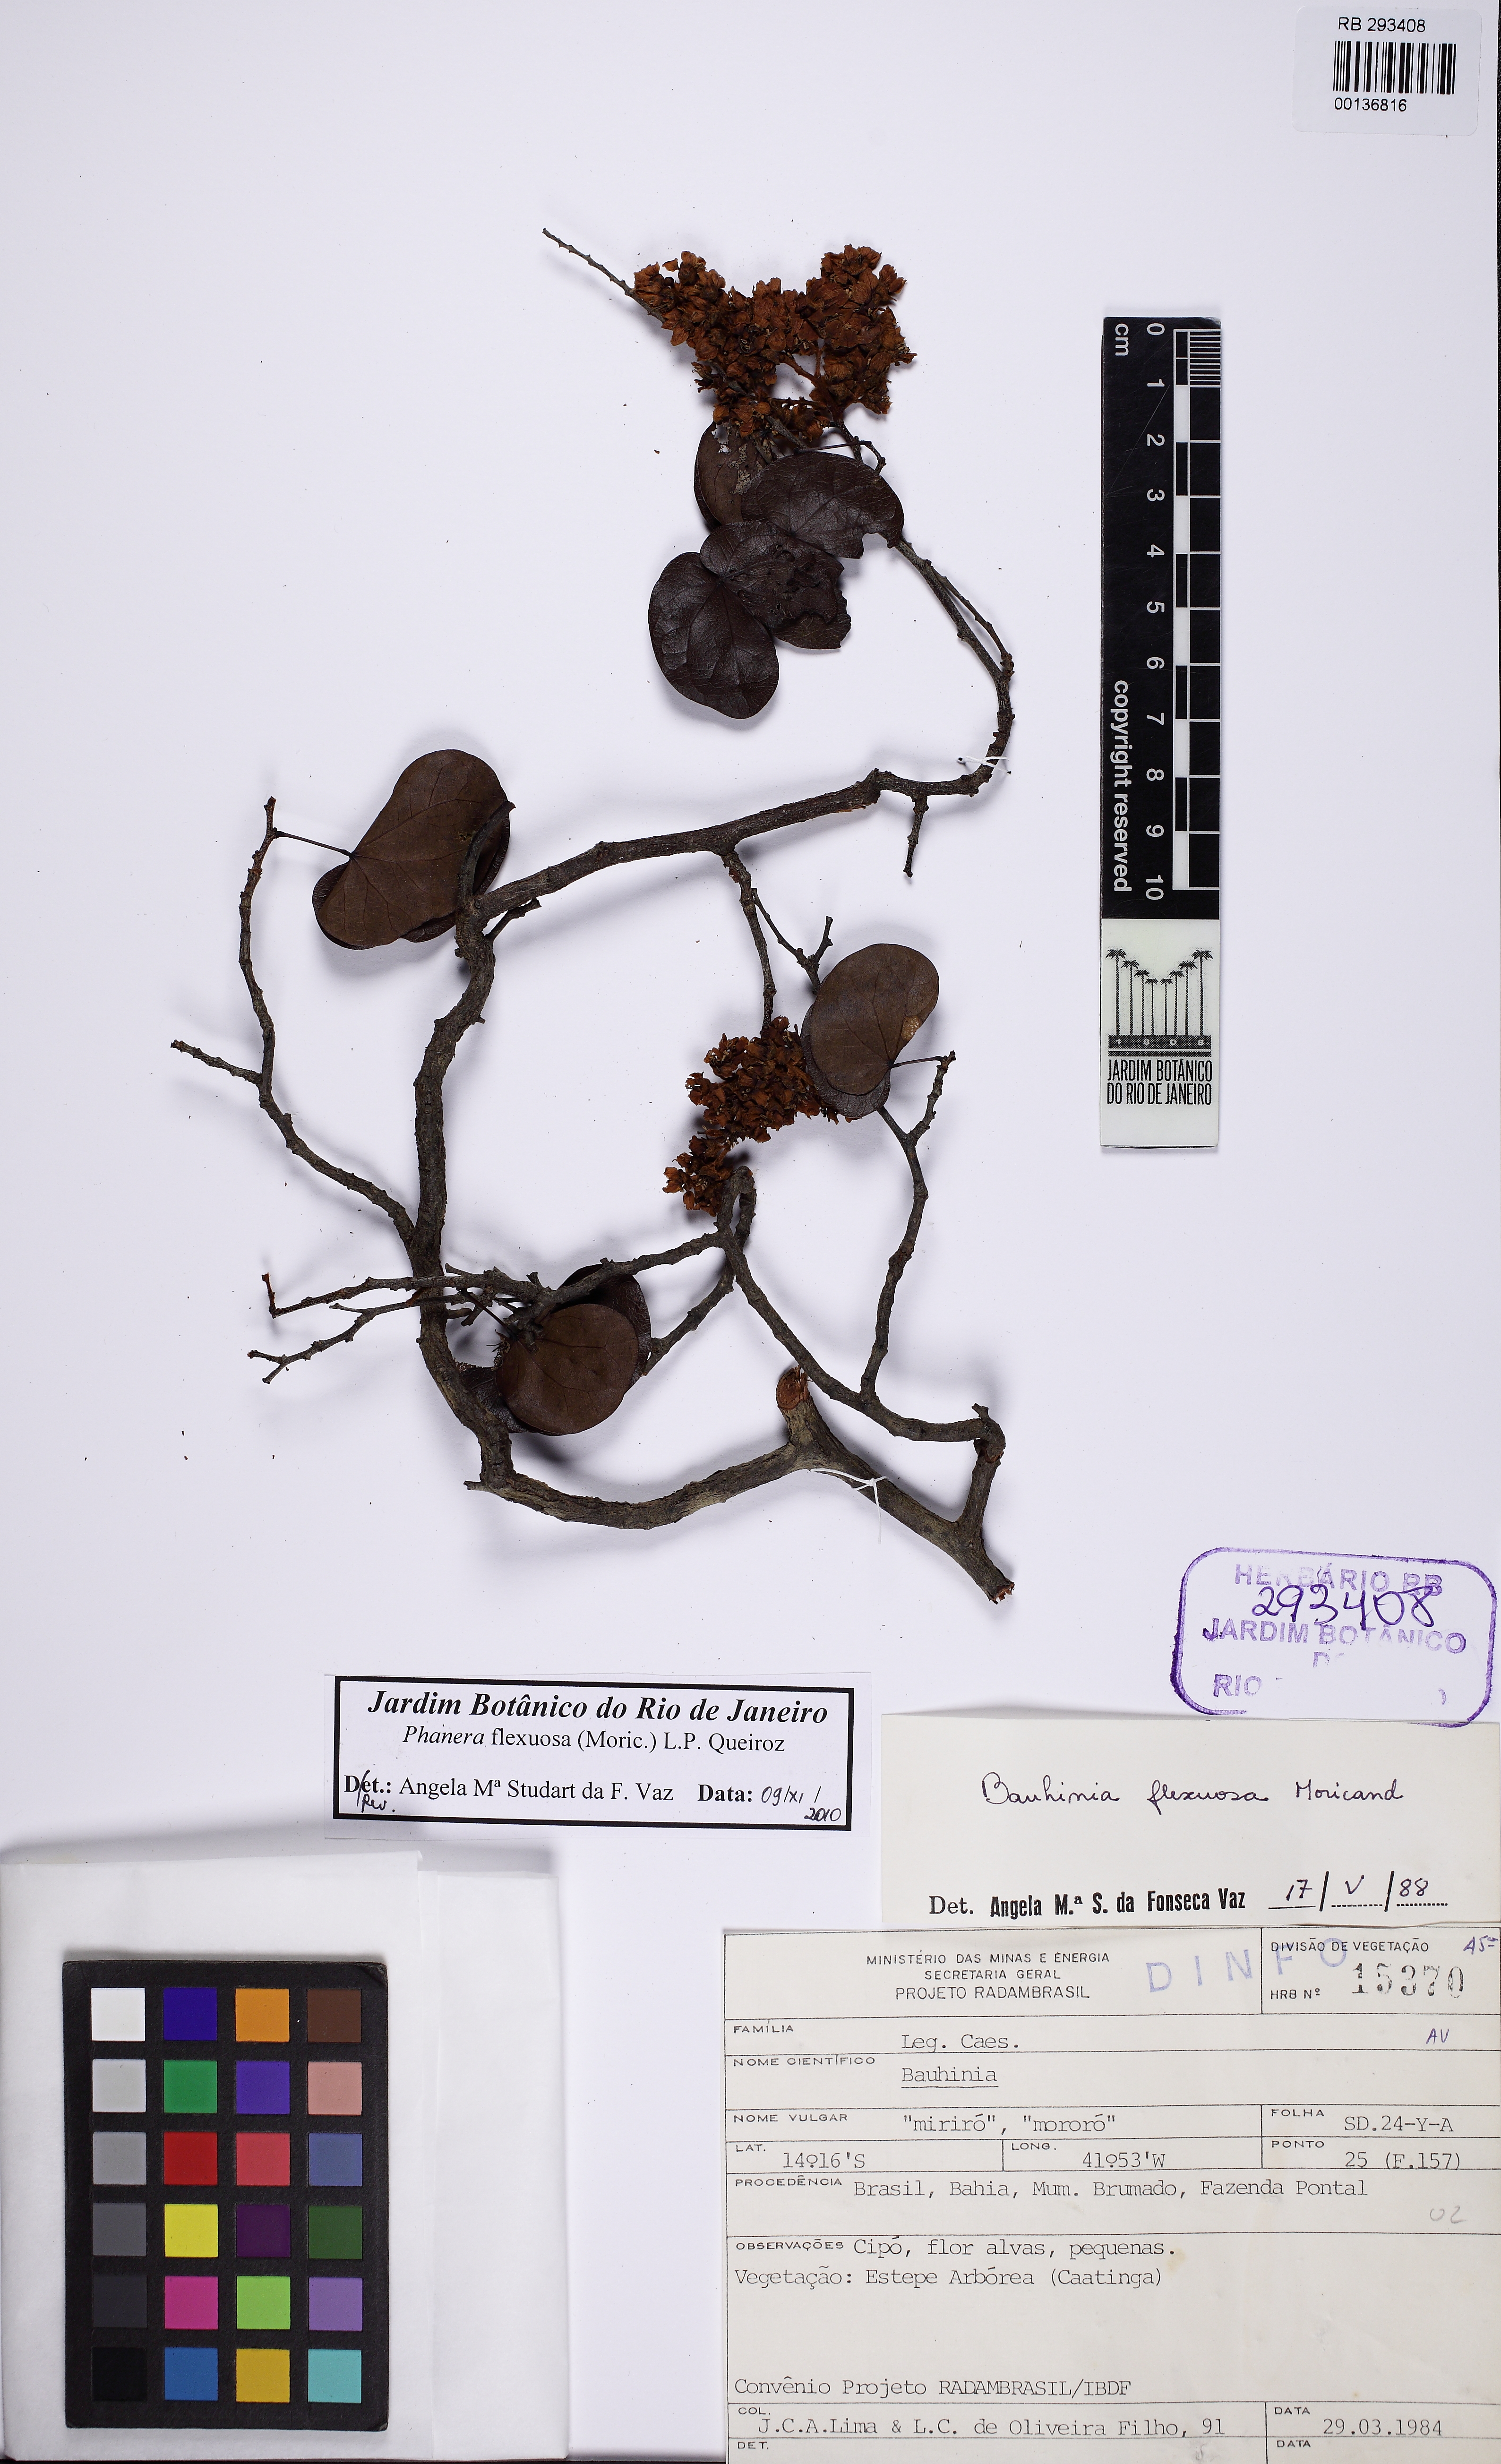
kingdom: Plantae
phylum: Tracheophyta
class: Magnoliopsida
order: Fabales
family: Fabaceae
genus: Schnella
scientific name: Schnella flexuosa
